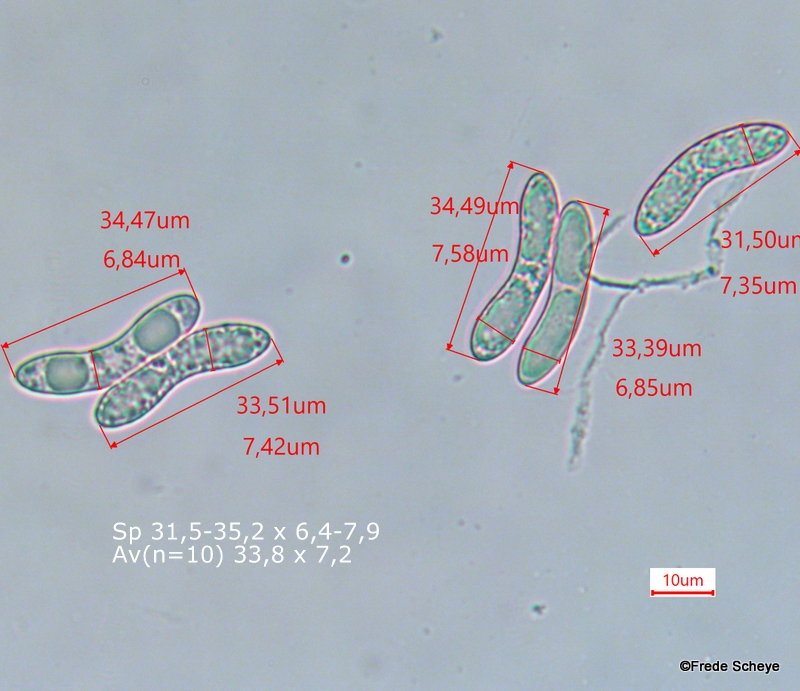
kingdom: Fungi
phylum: Ascomycota
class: Sordariomycetes
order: Sordariales
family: Helminthosphaeriaceae
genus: Echinosphaeria
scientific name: Echinosphaeria canescens
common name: brun børstekerne
